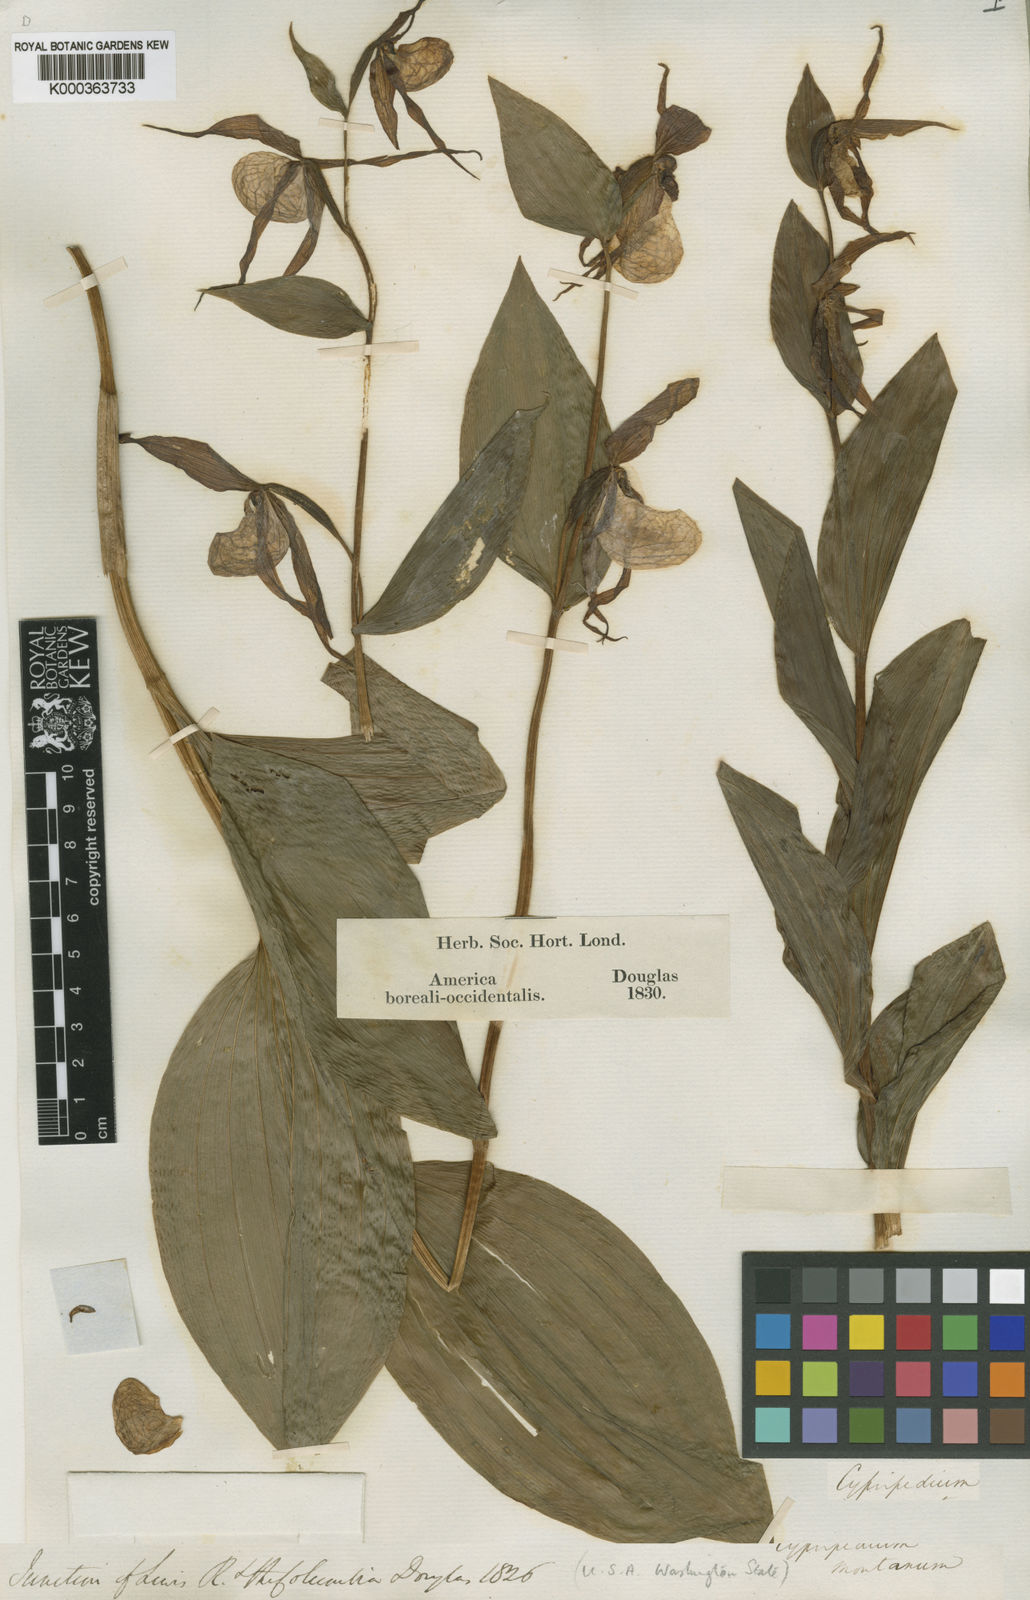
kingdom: Plantae
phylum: Tracheophyta
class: Liliopsida
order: Asparagales
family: Orchidaceae
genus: Cypripedium
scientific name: Cypripedium montanum
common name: Mountain lady's-slipper
